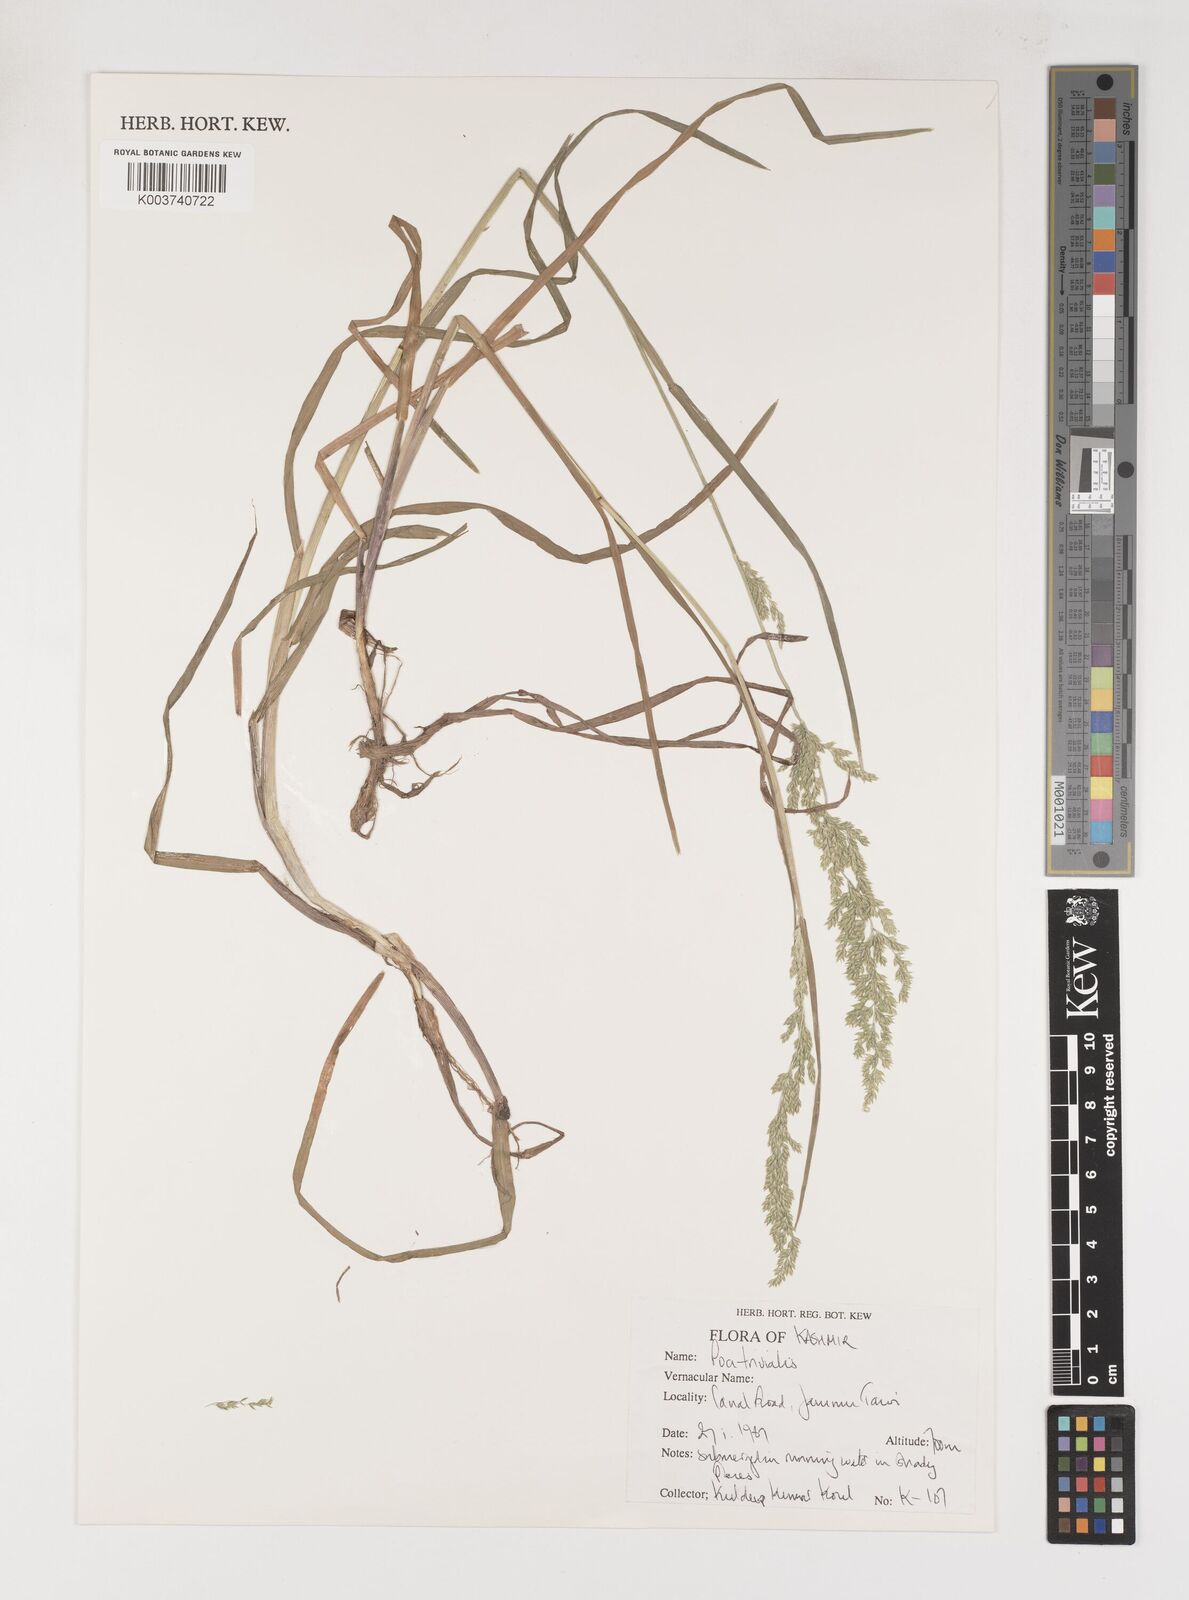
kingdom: Plantae
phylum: Tracheophyta
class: Liliopsida
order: Poales
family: Poaceae
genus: Poa
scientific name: Poa trivialis
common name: Rough bluegrass
